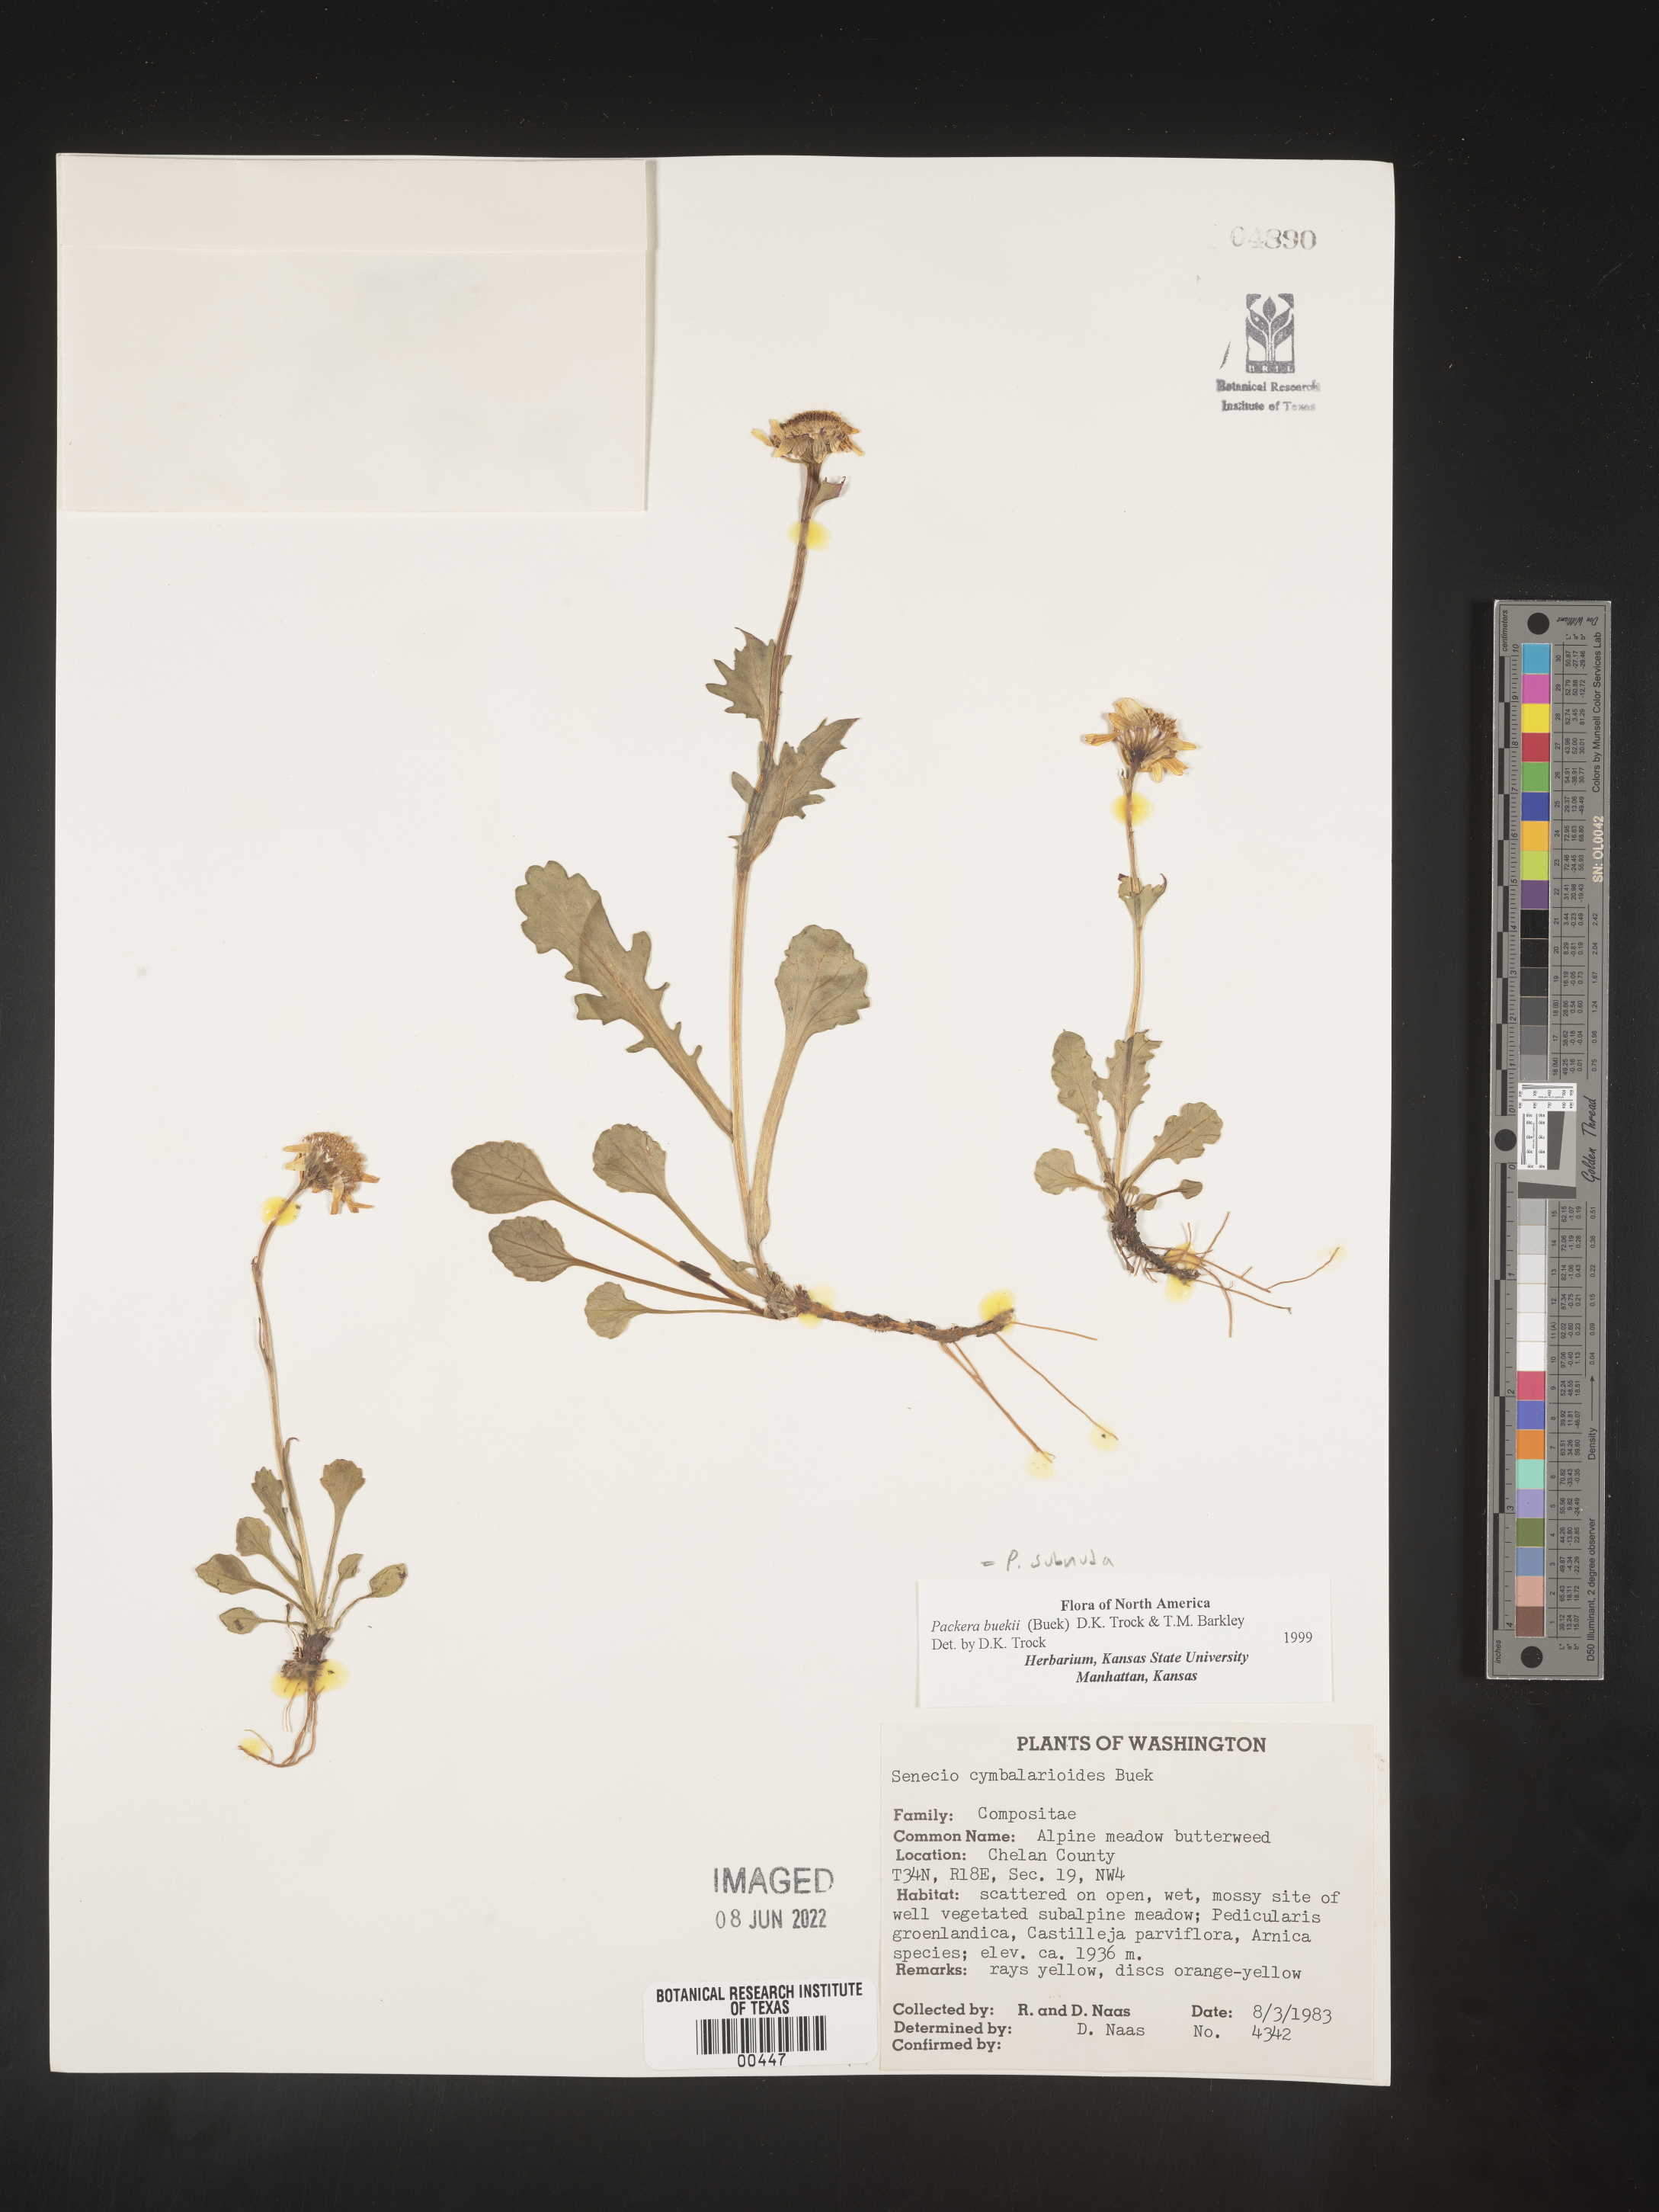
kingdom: Plantae
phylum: Tracheophyta
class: Magnoliopsida
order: Asterales
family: Asteraceae
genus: Packera
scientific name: Packera subnuda
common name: Buek's groundsel
